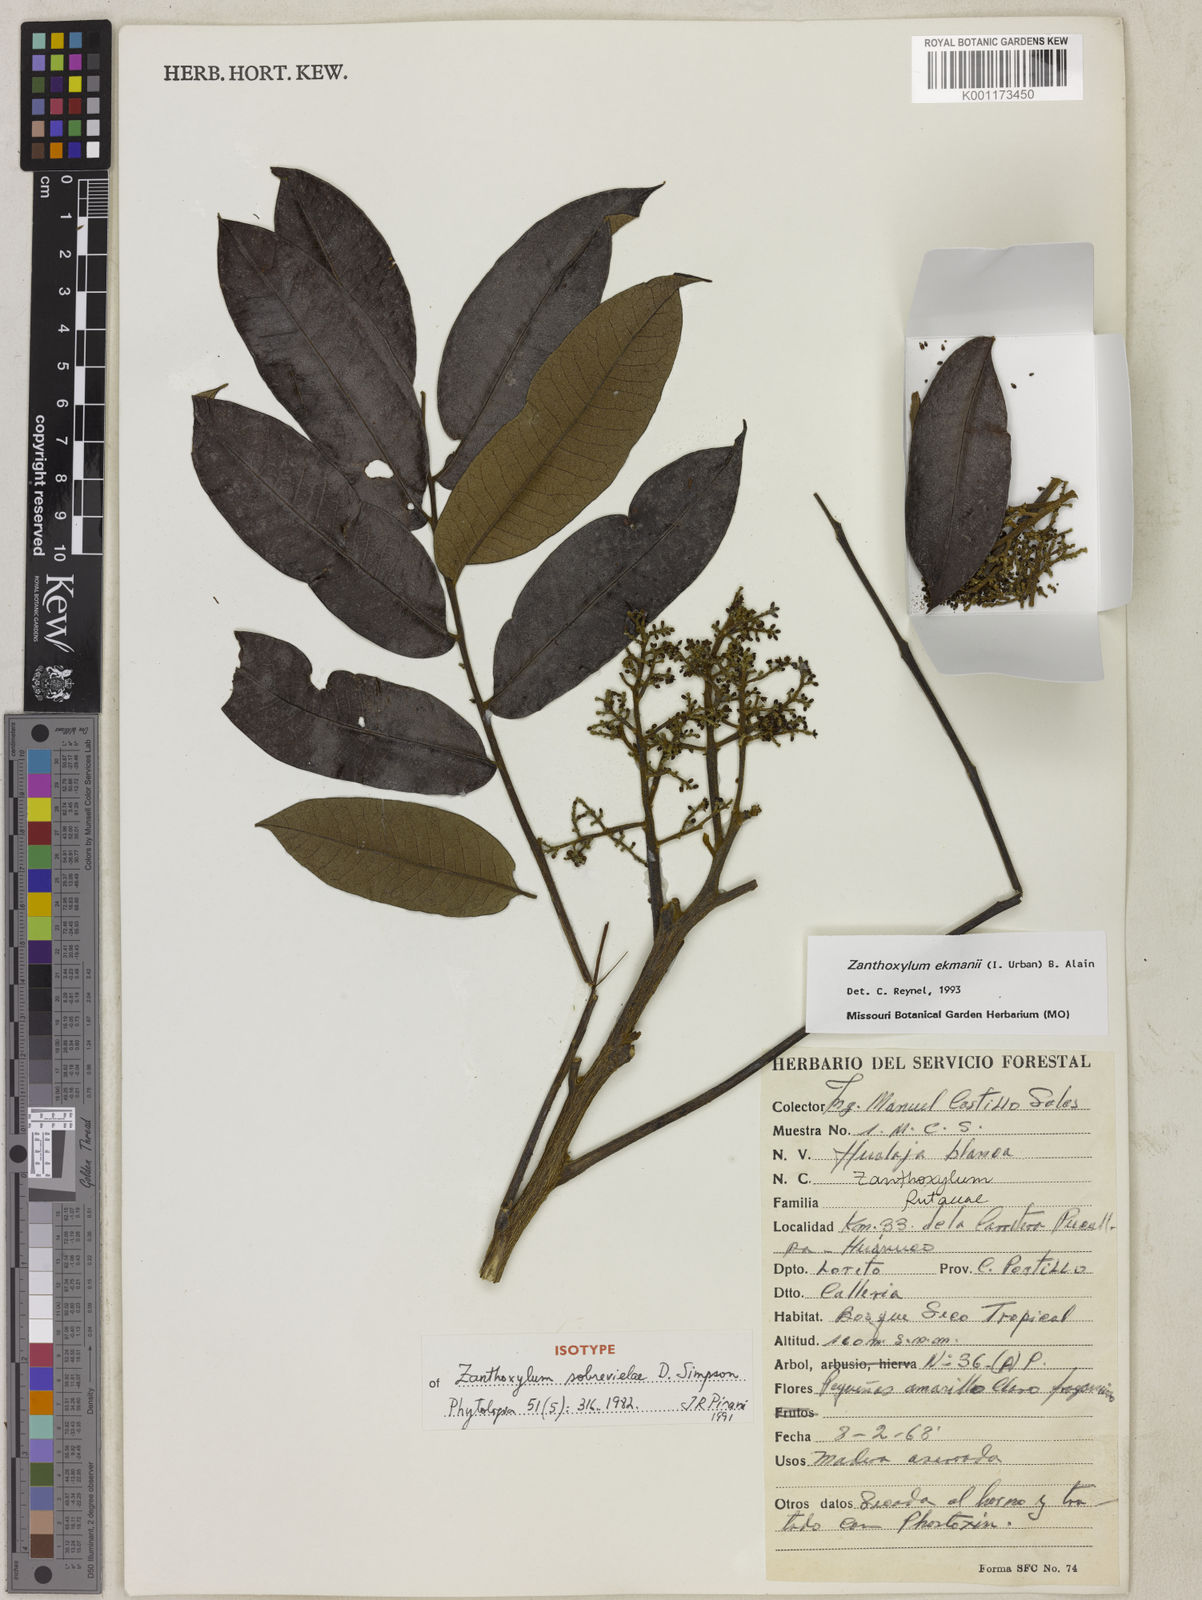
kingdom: Plantae
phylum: Tracheophyta
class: Magnoliopsida
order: Sapindales
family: Rutaceae
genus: Zanthoxylum
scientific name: Zanthoxylum ekmanii
